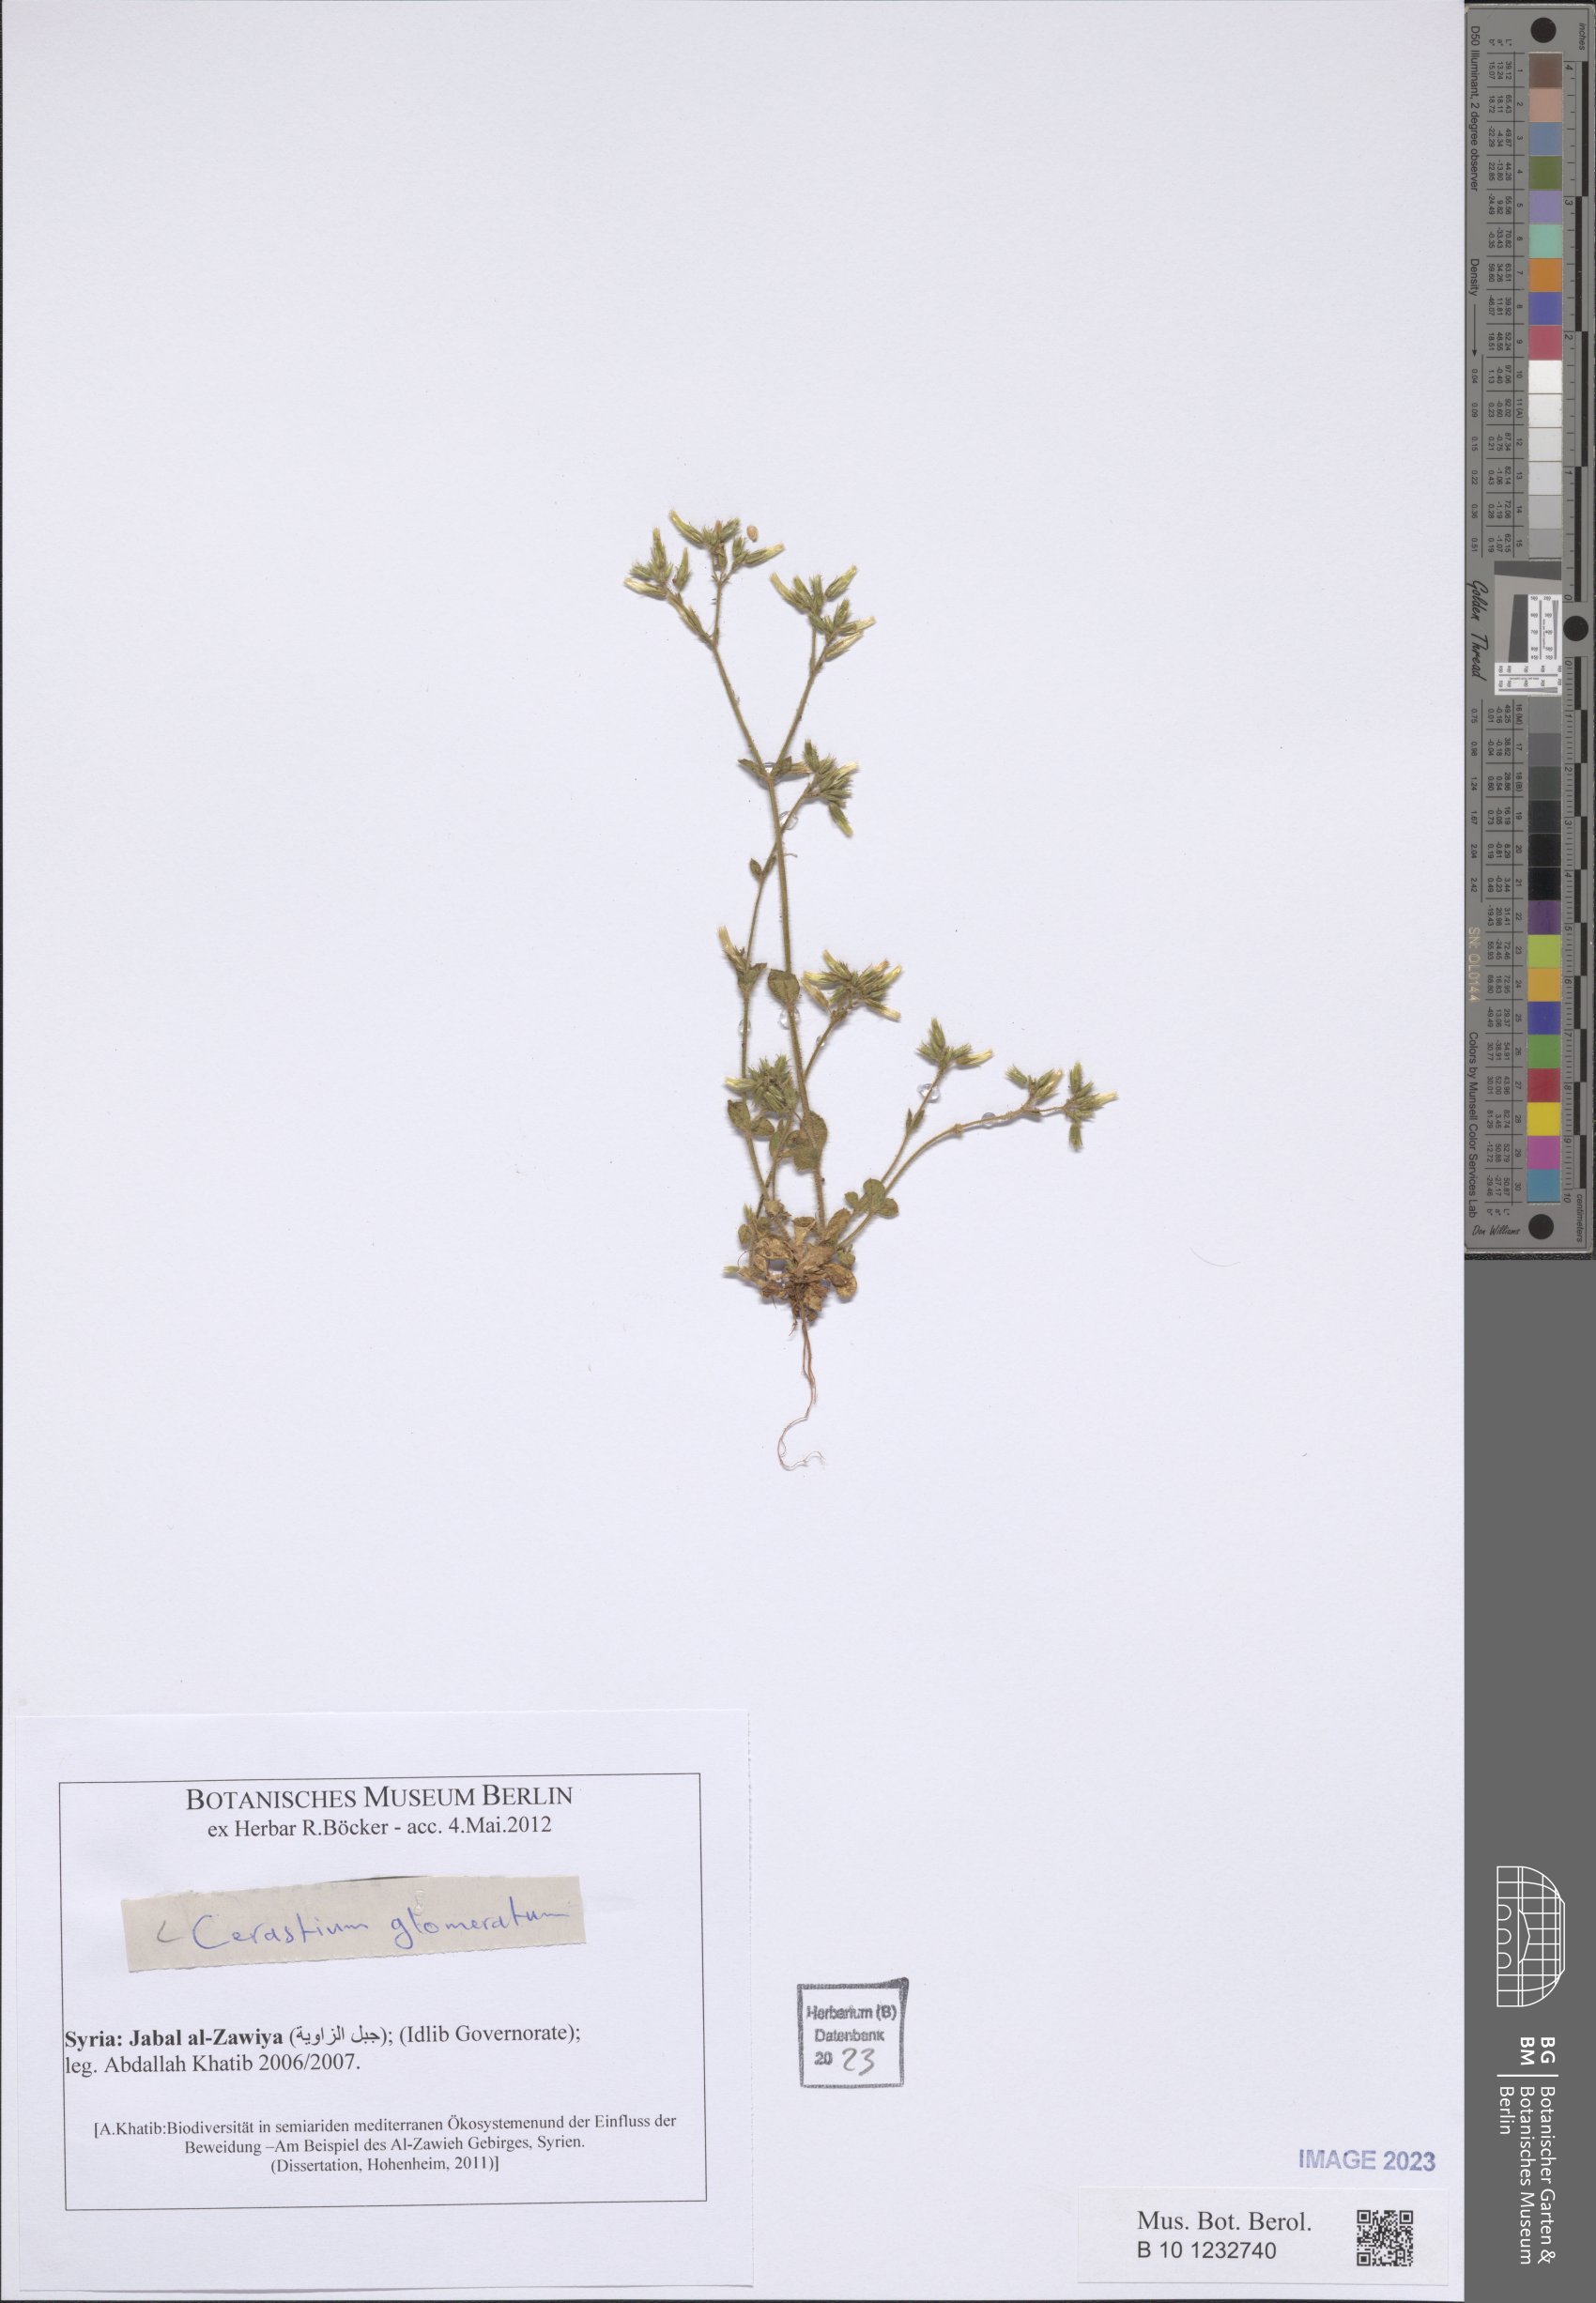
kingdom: Plantae
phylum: Tracheophyta
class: Magnoliopsida
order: Caryophyllales
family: Caryophyllaceae
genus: Cerastium
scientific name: Cerastium glomeratum
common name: Sticky chickweed
